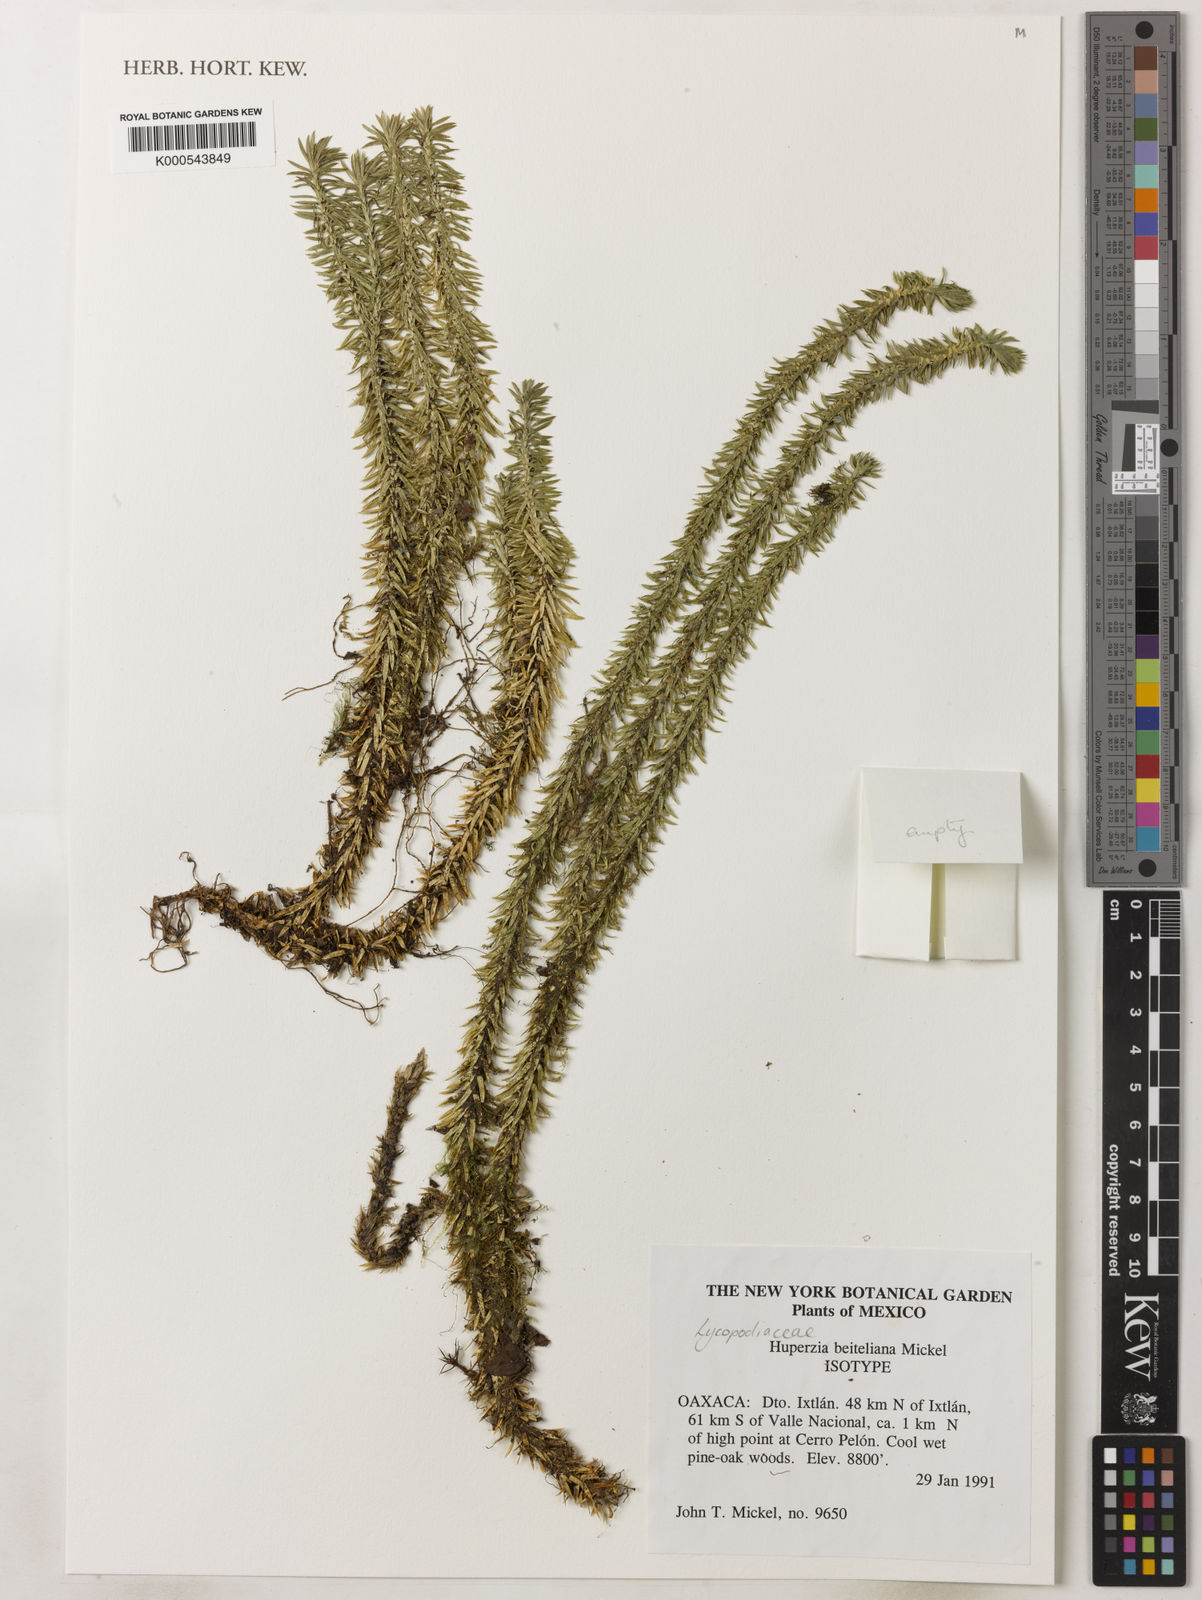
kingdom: Plantae
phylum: Tracheophyta
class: Lycopodiopsida
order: Lycopodiales
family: Lycopodiaceae
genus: Huperzia
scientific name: Huperzia beiteliana
